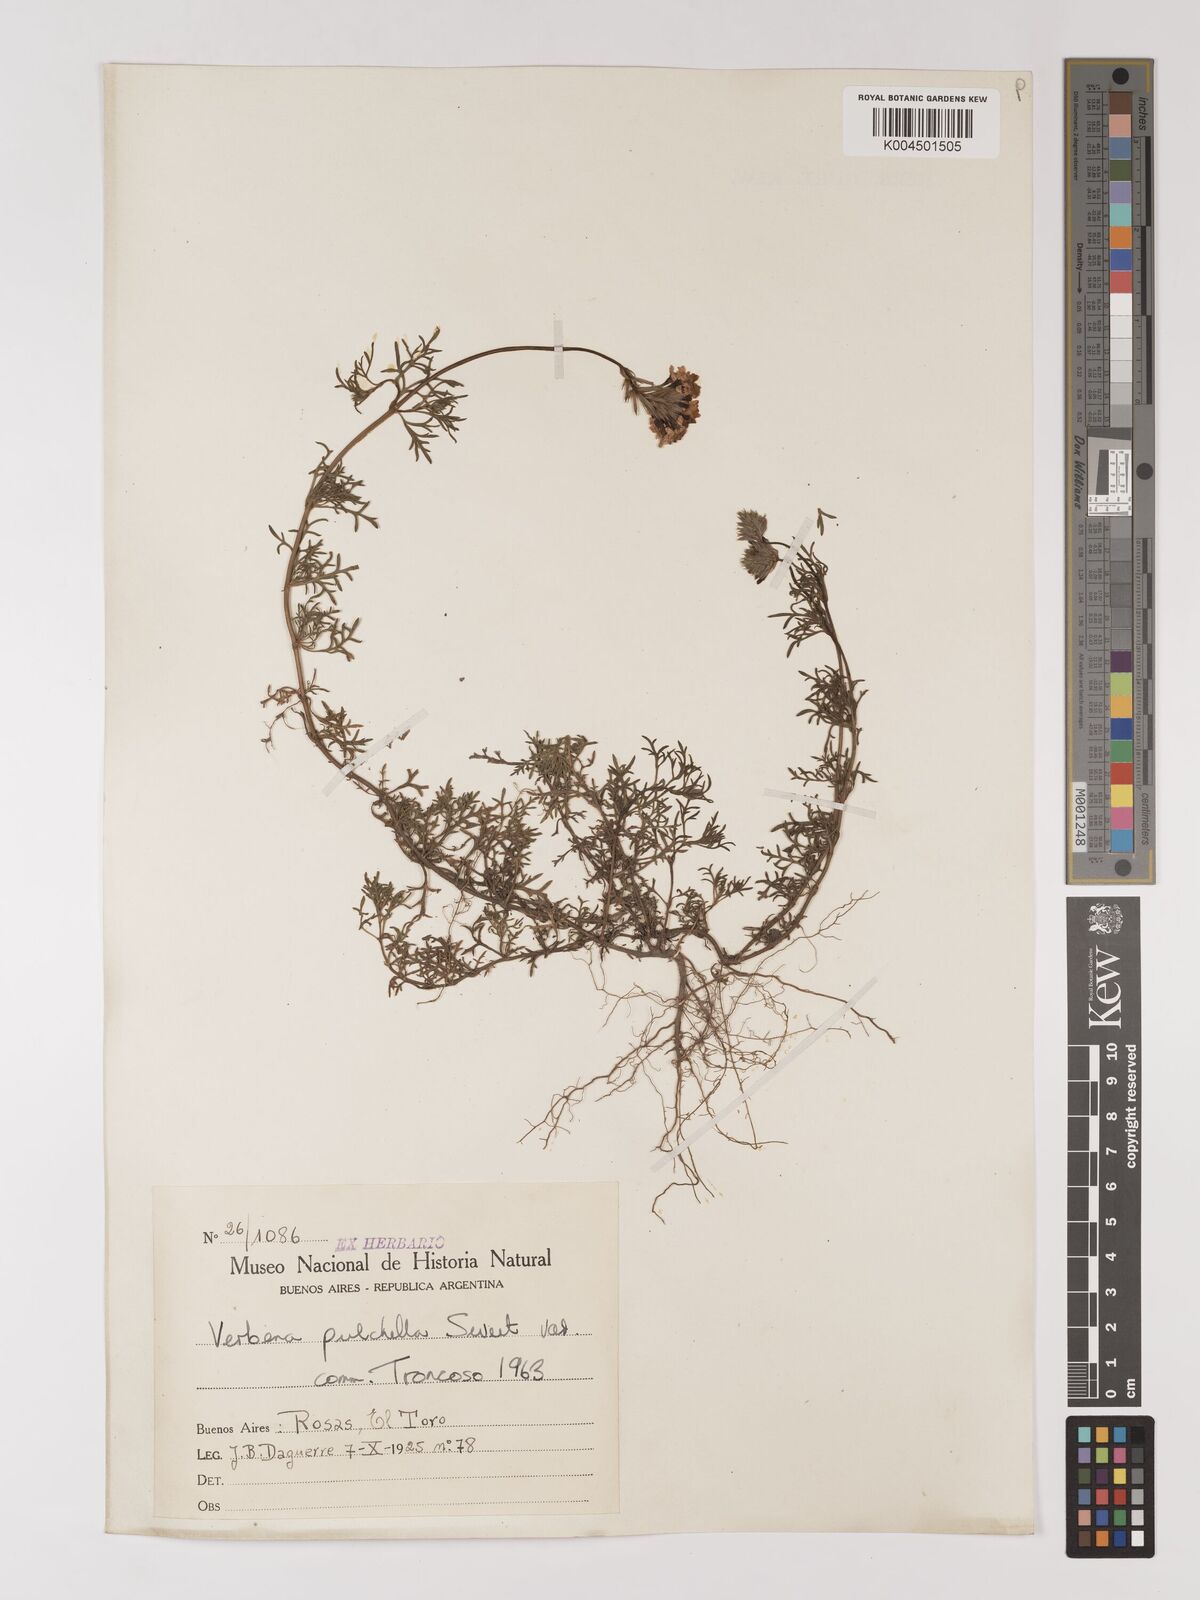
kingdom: Plantae
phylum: Tracheophyta
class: Magnoliopsida
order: Lamiales
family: Verbenaceae
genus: Verbena
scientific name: Verbena tenera
